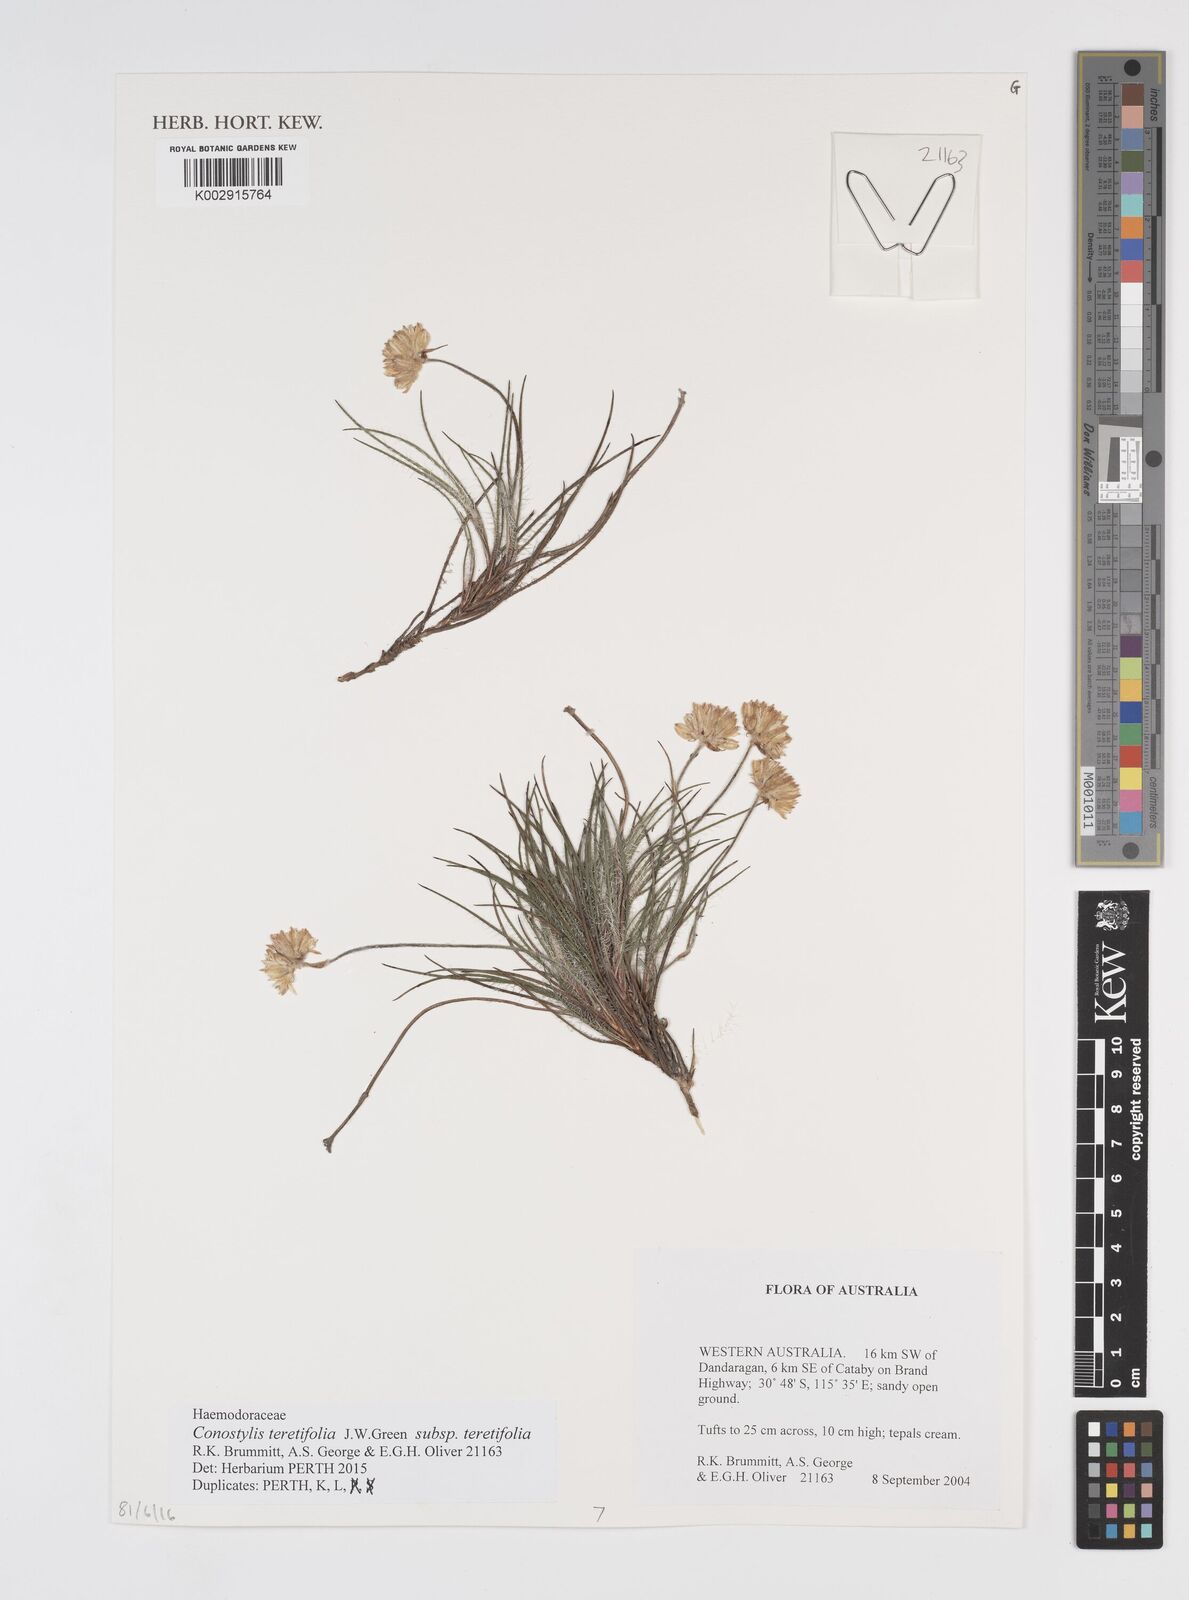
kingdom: Plantae
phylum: Tracheophyta
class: Liliopsida
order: Commelinales
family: Haemodoraceae
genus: Conostylis
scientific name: Conostylis setigera
